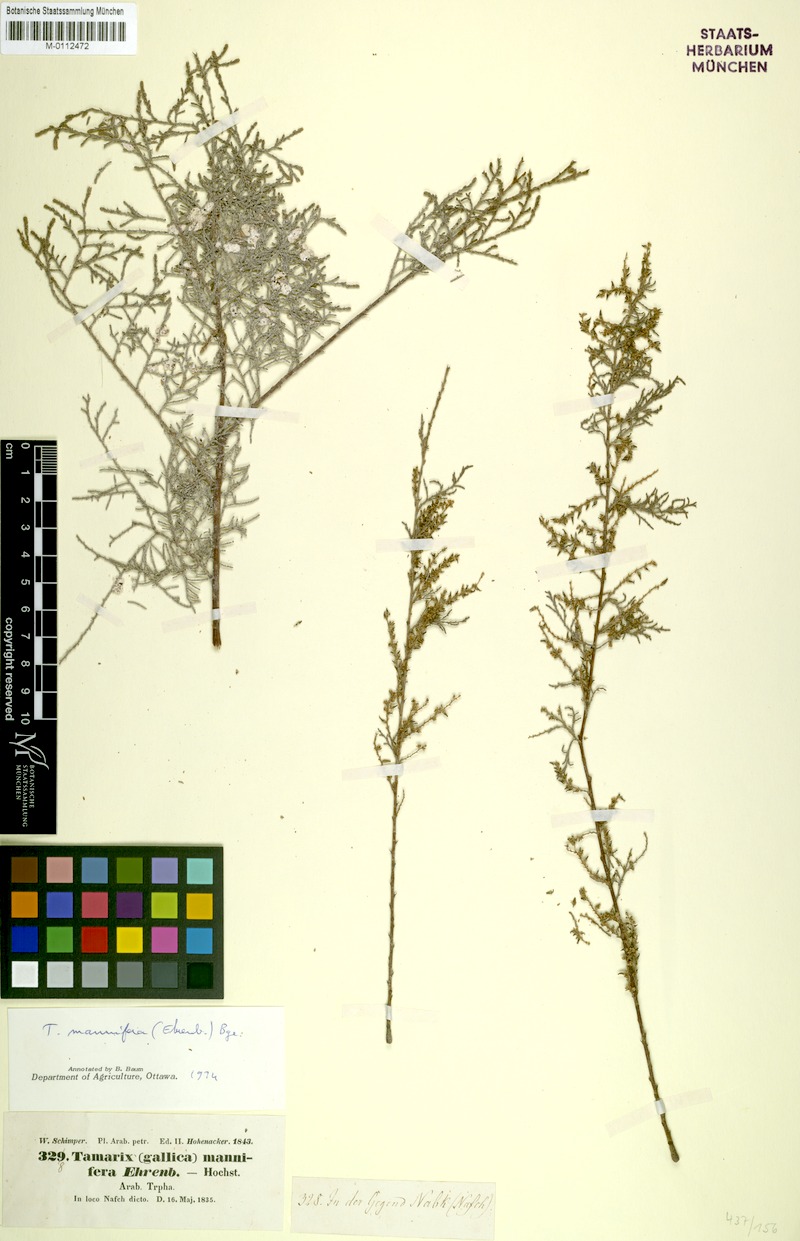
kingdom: Plantae
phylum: Tracheophyta
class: Magnoliopsida
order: Caryophyllales
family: Tamaricaceae
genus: Tamarix
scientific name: Tamarix senegalensis
